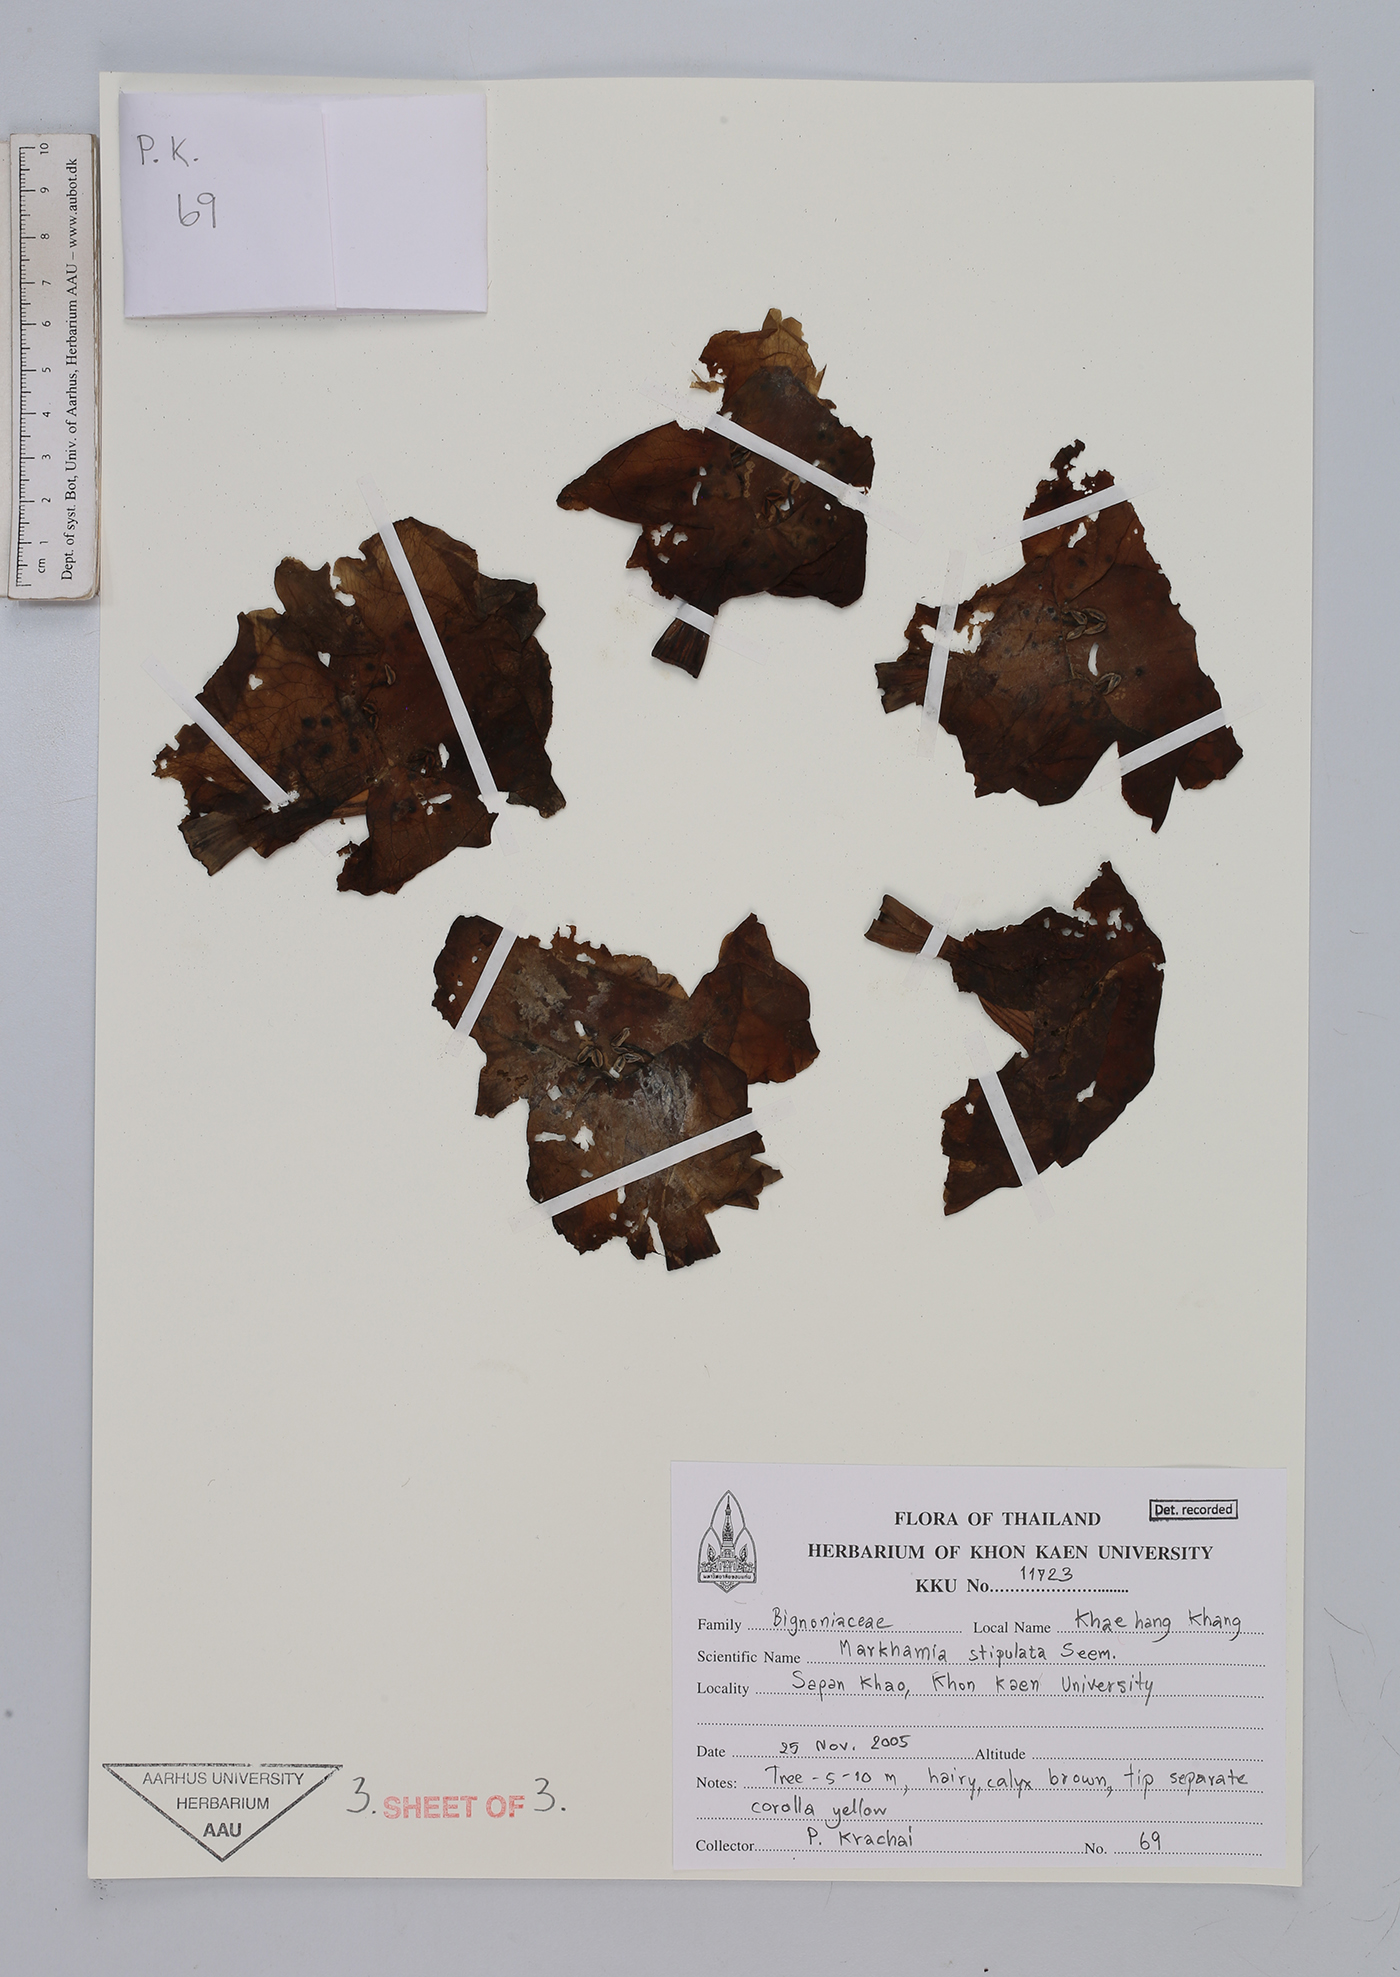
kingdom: Plantae
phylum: Tracheophyta
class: Magnoliopsida
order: Lamiales
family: Bignoniaceae
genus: Markhamia
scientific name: Markhamia stipulata
